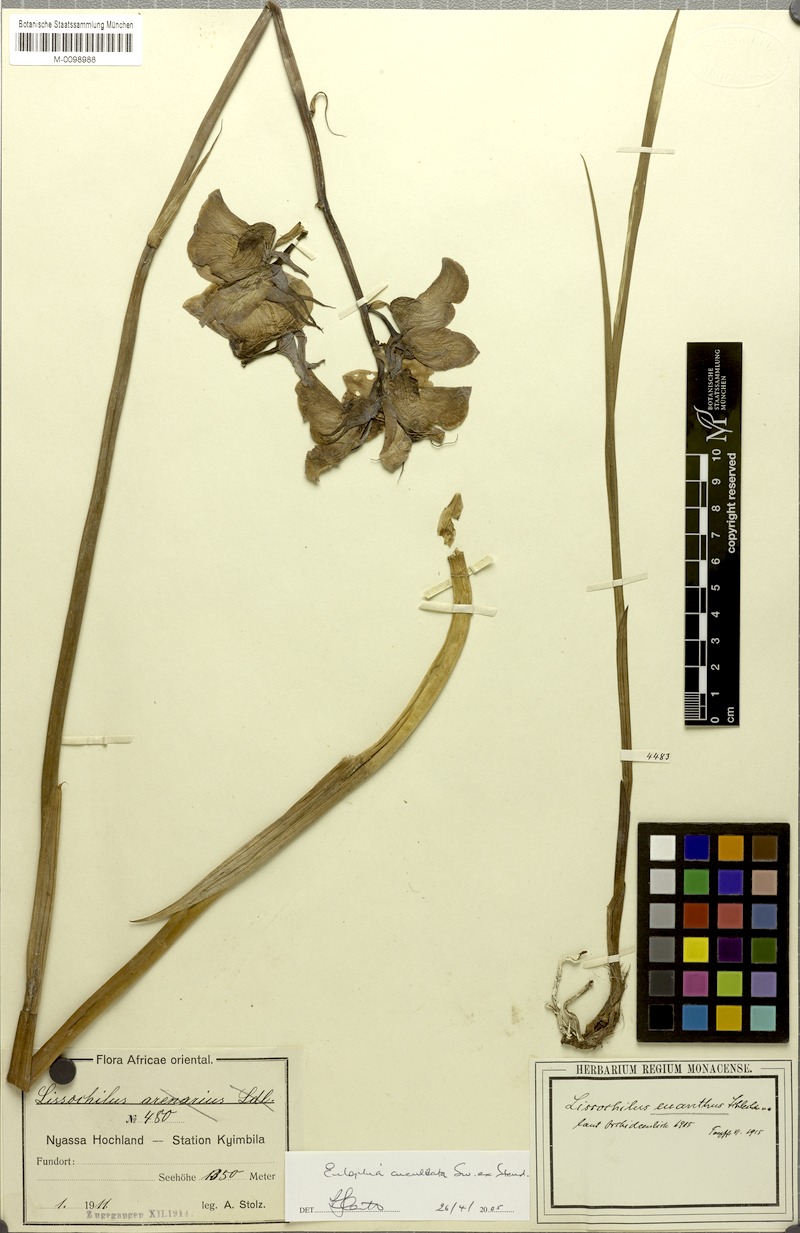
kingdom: Plantae
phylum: Tracheophyta
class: Liliopsida
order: Asparagales
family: Orchidaceae
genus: Eulophia
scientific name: Eulophia cucullata
